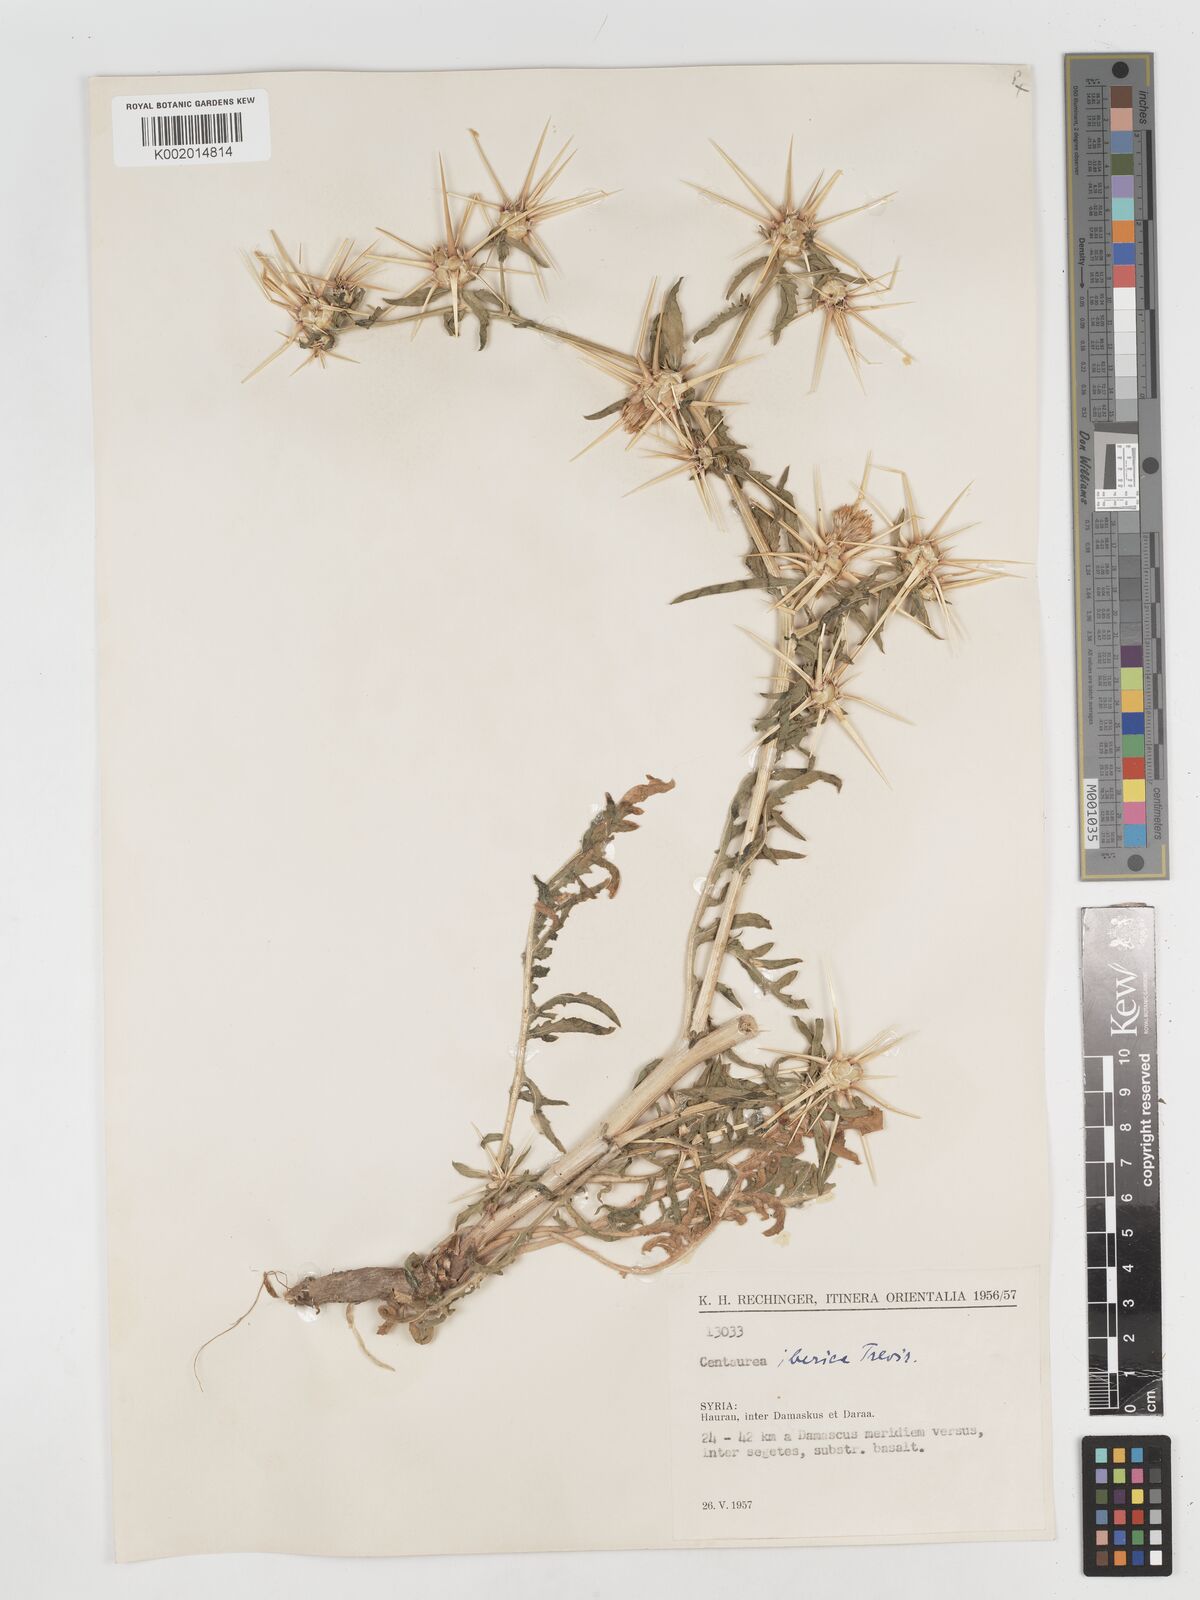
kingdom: Plantae
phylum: Tracheophyta
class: Magnoliopsida
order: Asterales
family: Asteraceae
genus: Centaurea
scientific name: Centaurea iberica
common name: Iberian knapweed
